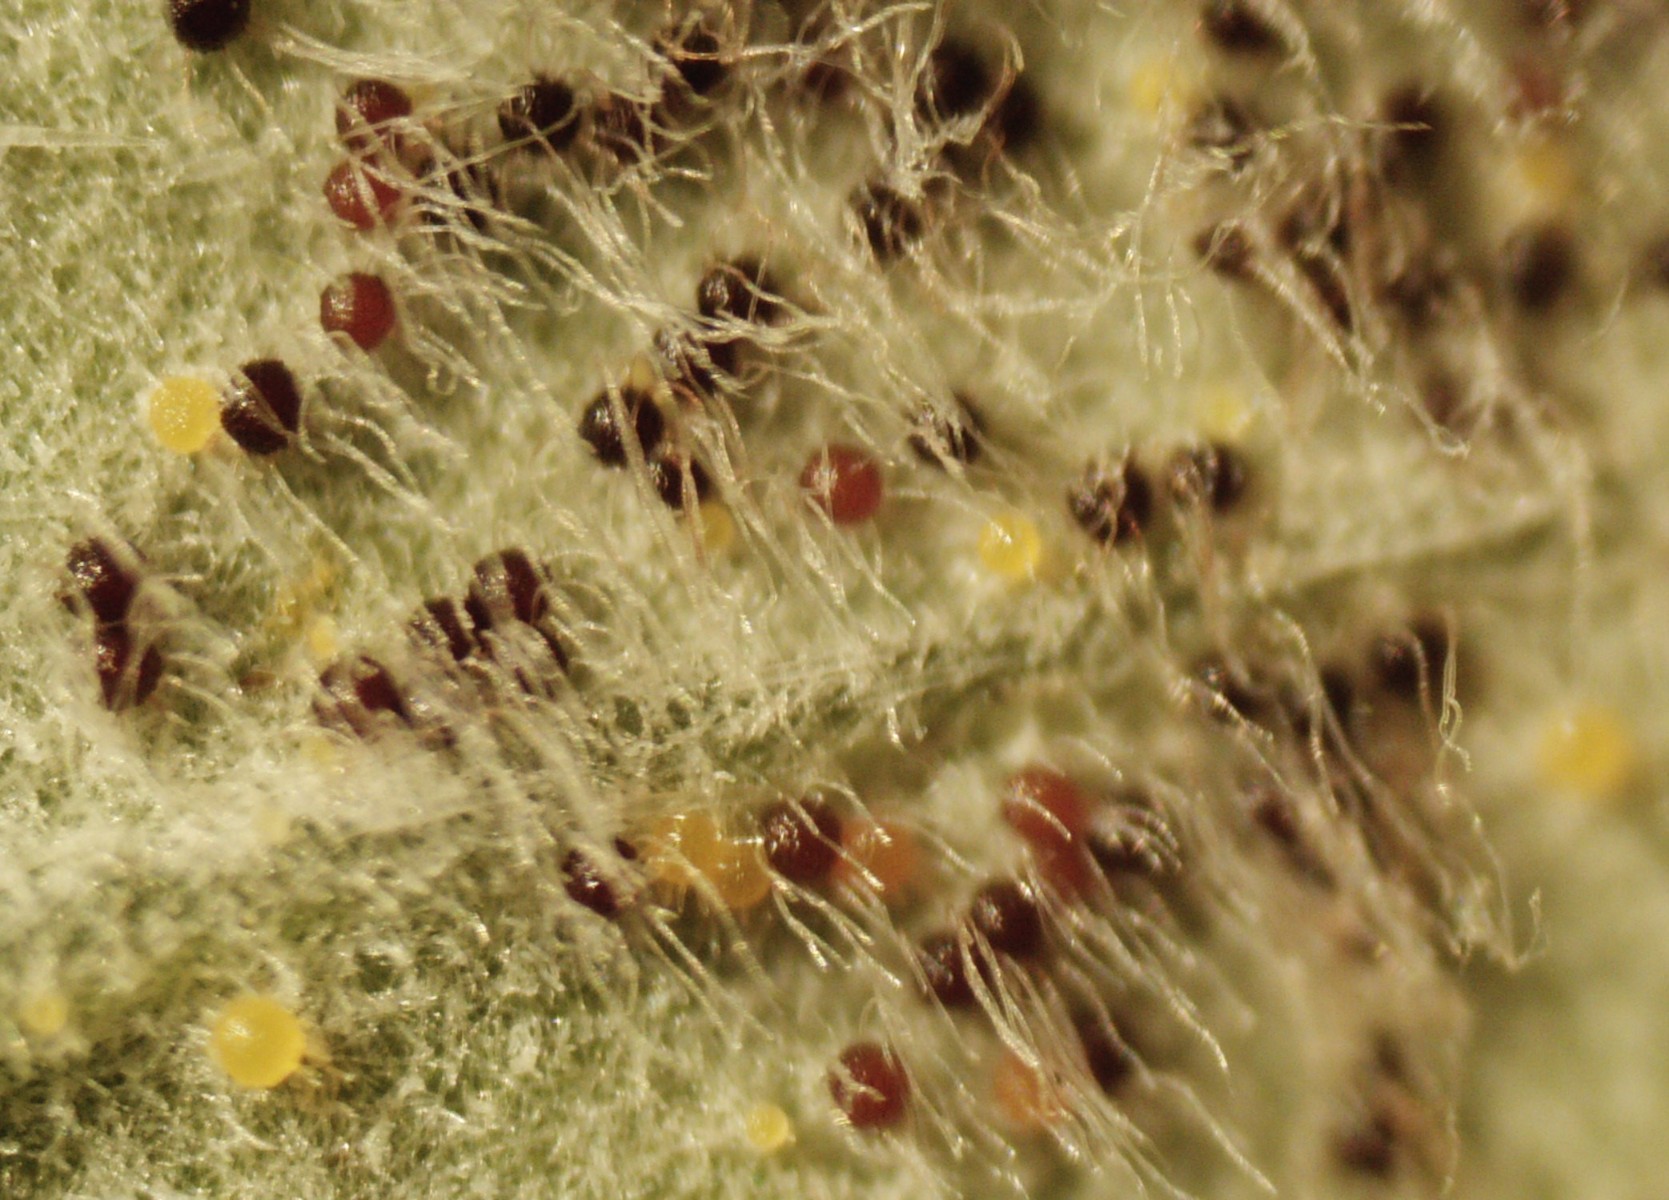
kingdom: Fungi
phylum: Ascomycota
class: Leotiomycetes
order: Helotiales
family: Erysiphaceae
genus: Erysiphe
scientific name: Erysiphe astragali
